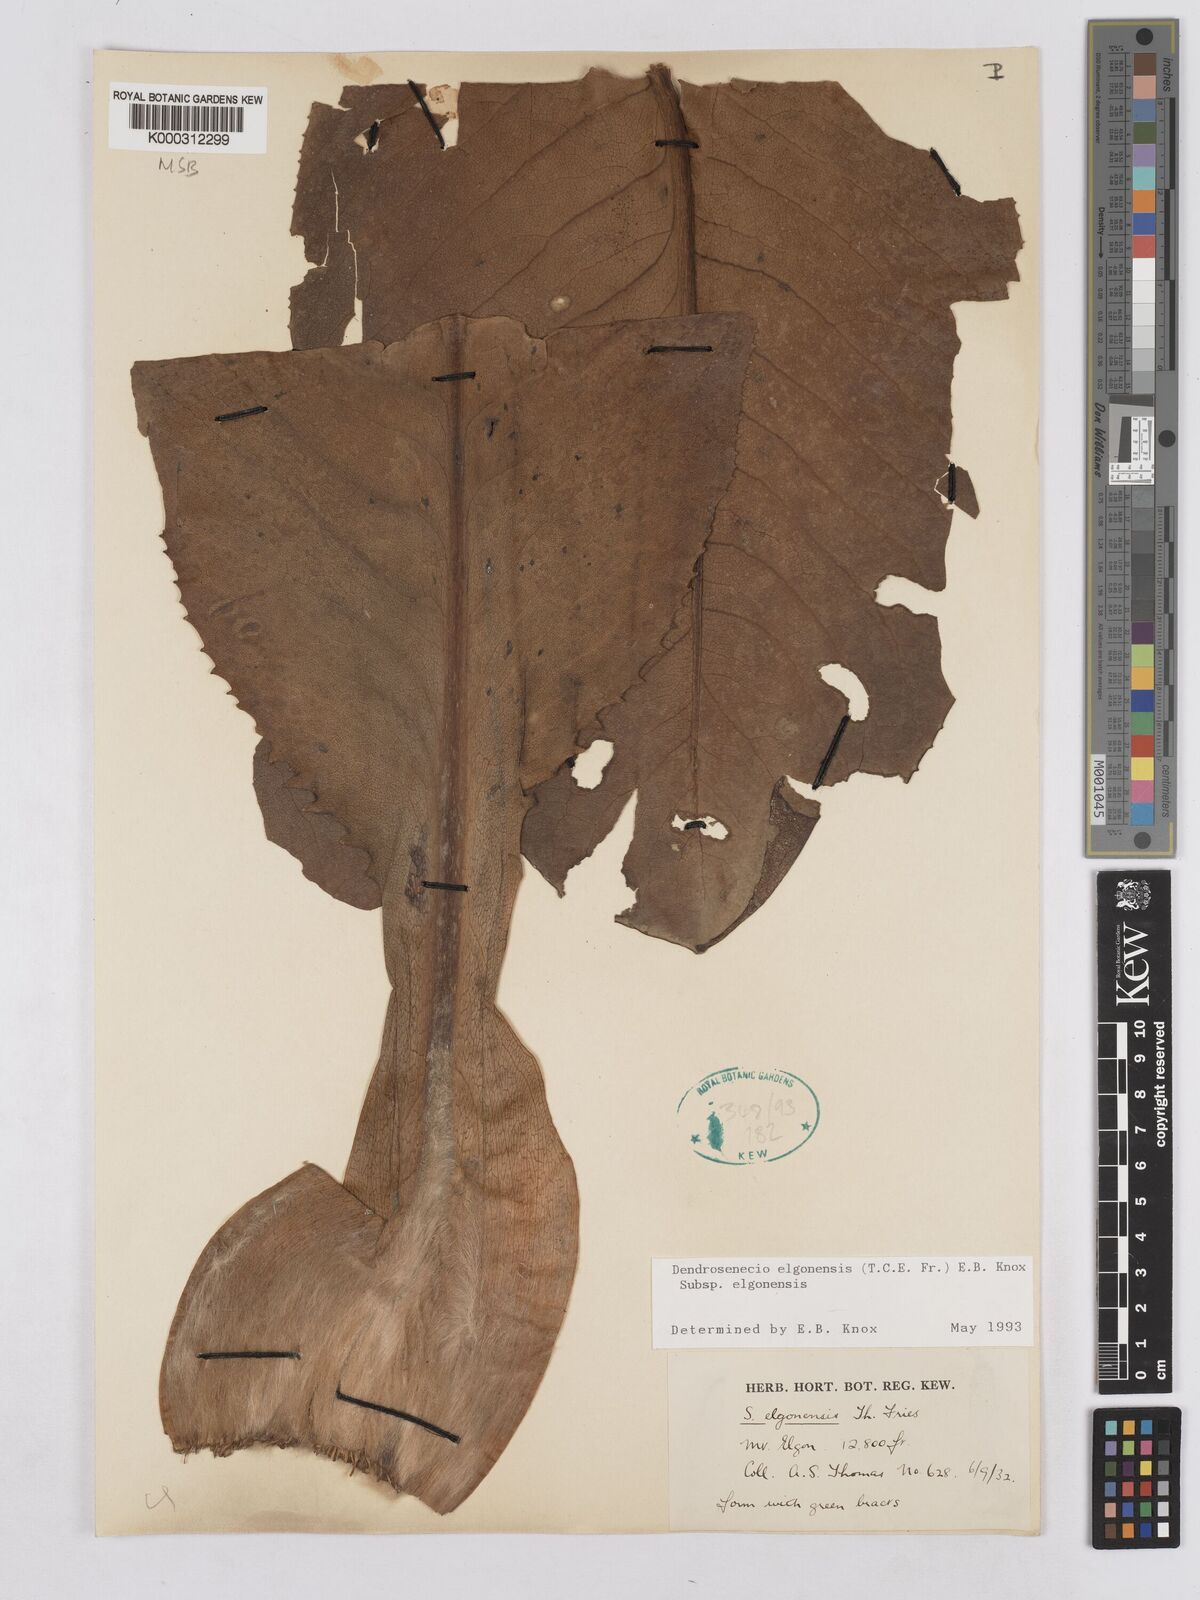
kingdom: Plantae
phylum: Tracheophyta
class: Magnoliopsida
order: Asterales
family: Asteraceae
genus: Dendrosenecio
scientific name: Dendrosenecio elgonensis
